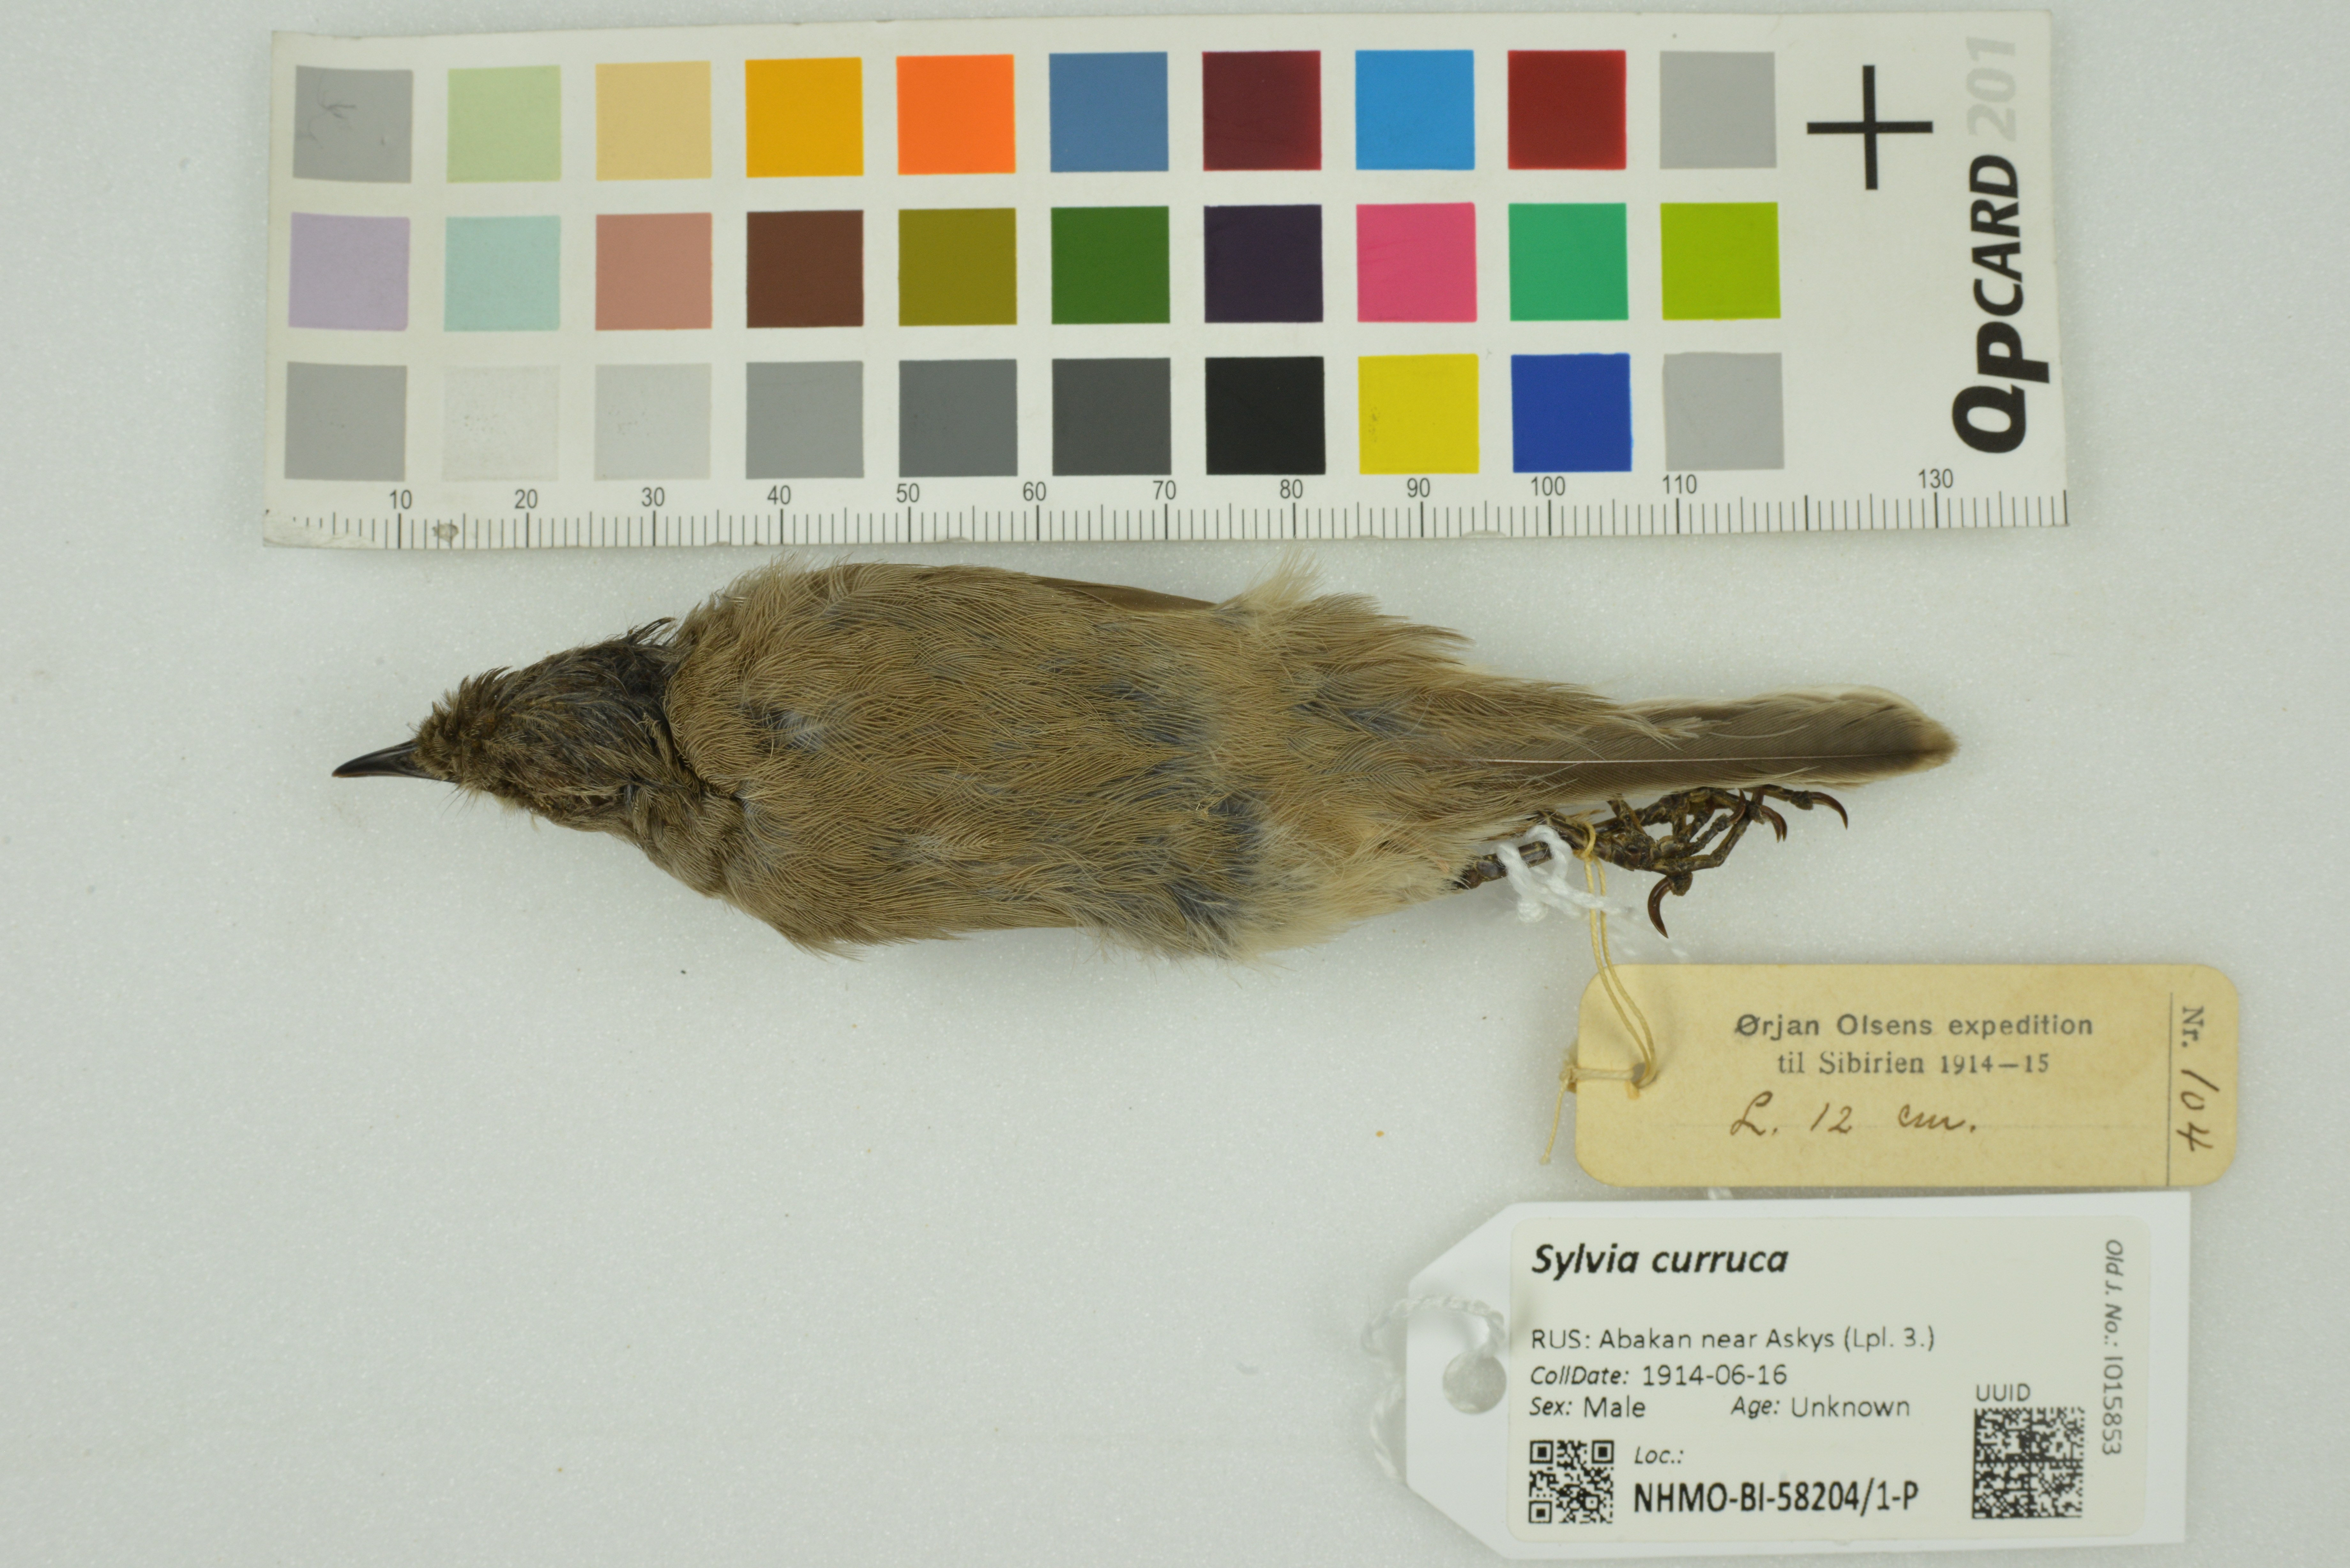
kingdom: Animalia
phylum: Chordata
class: Aves
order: Passeriformes
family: Sylviidae
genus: Sylvia
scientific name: Sylvia curruca
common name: Lesser whitethroat
